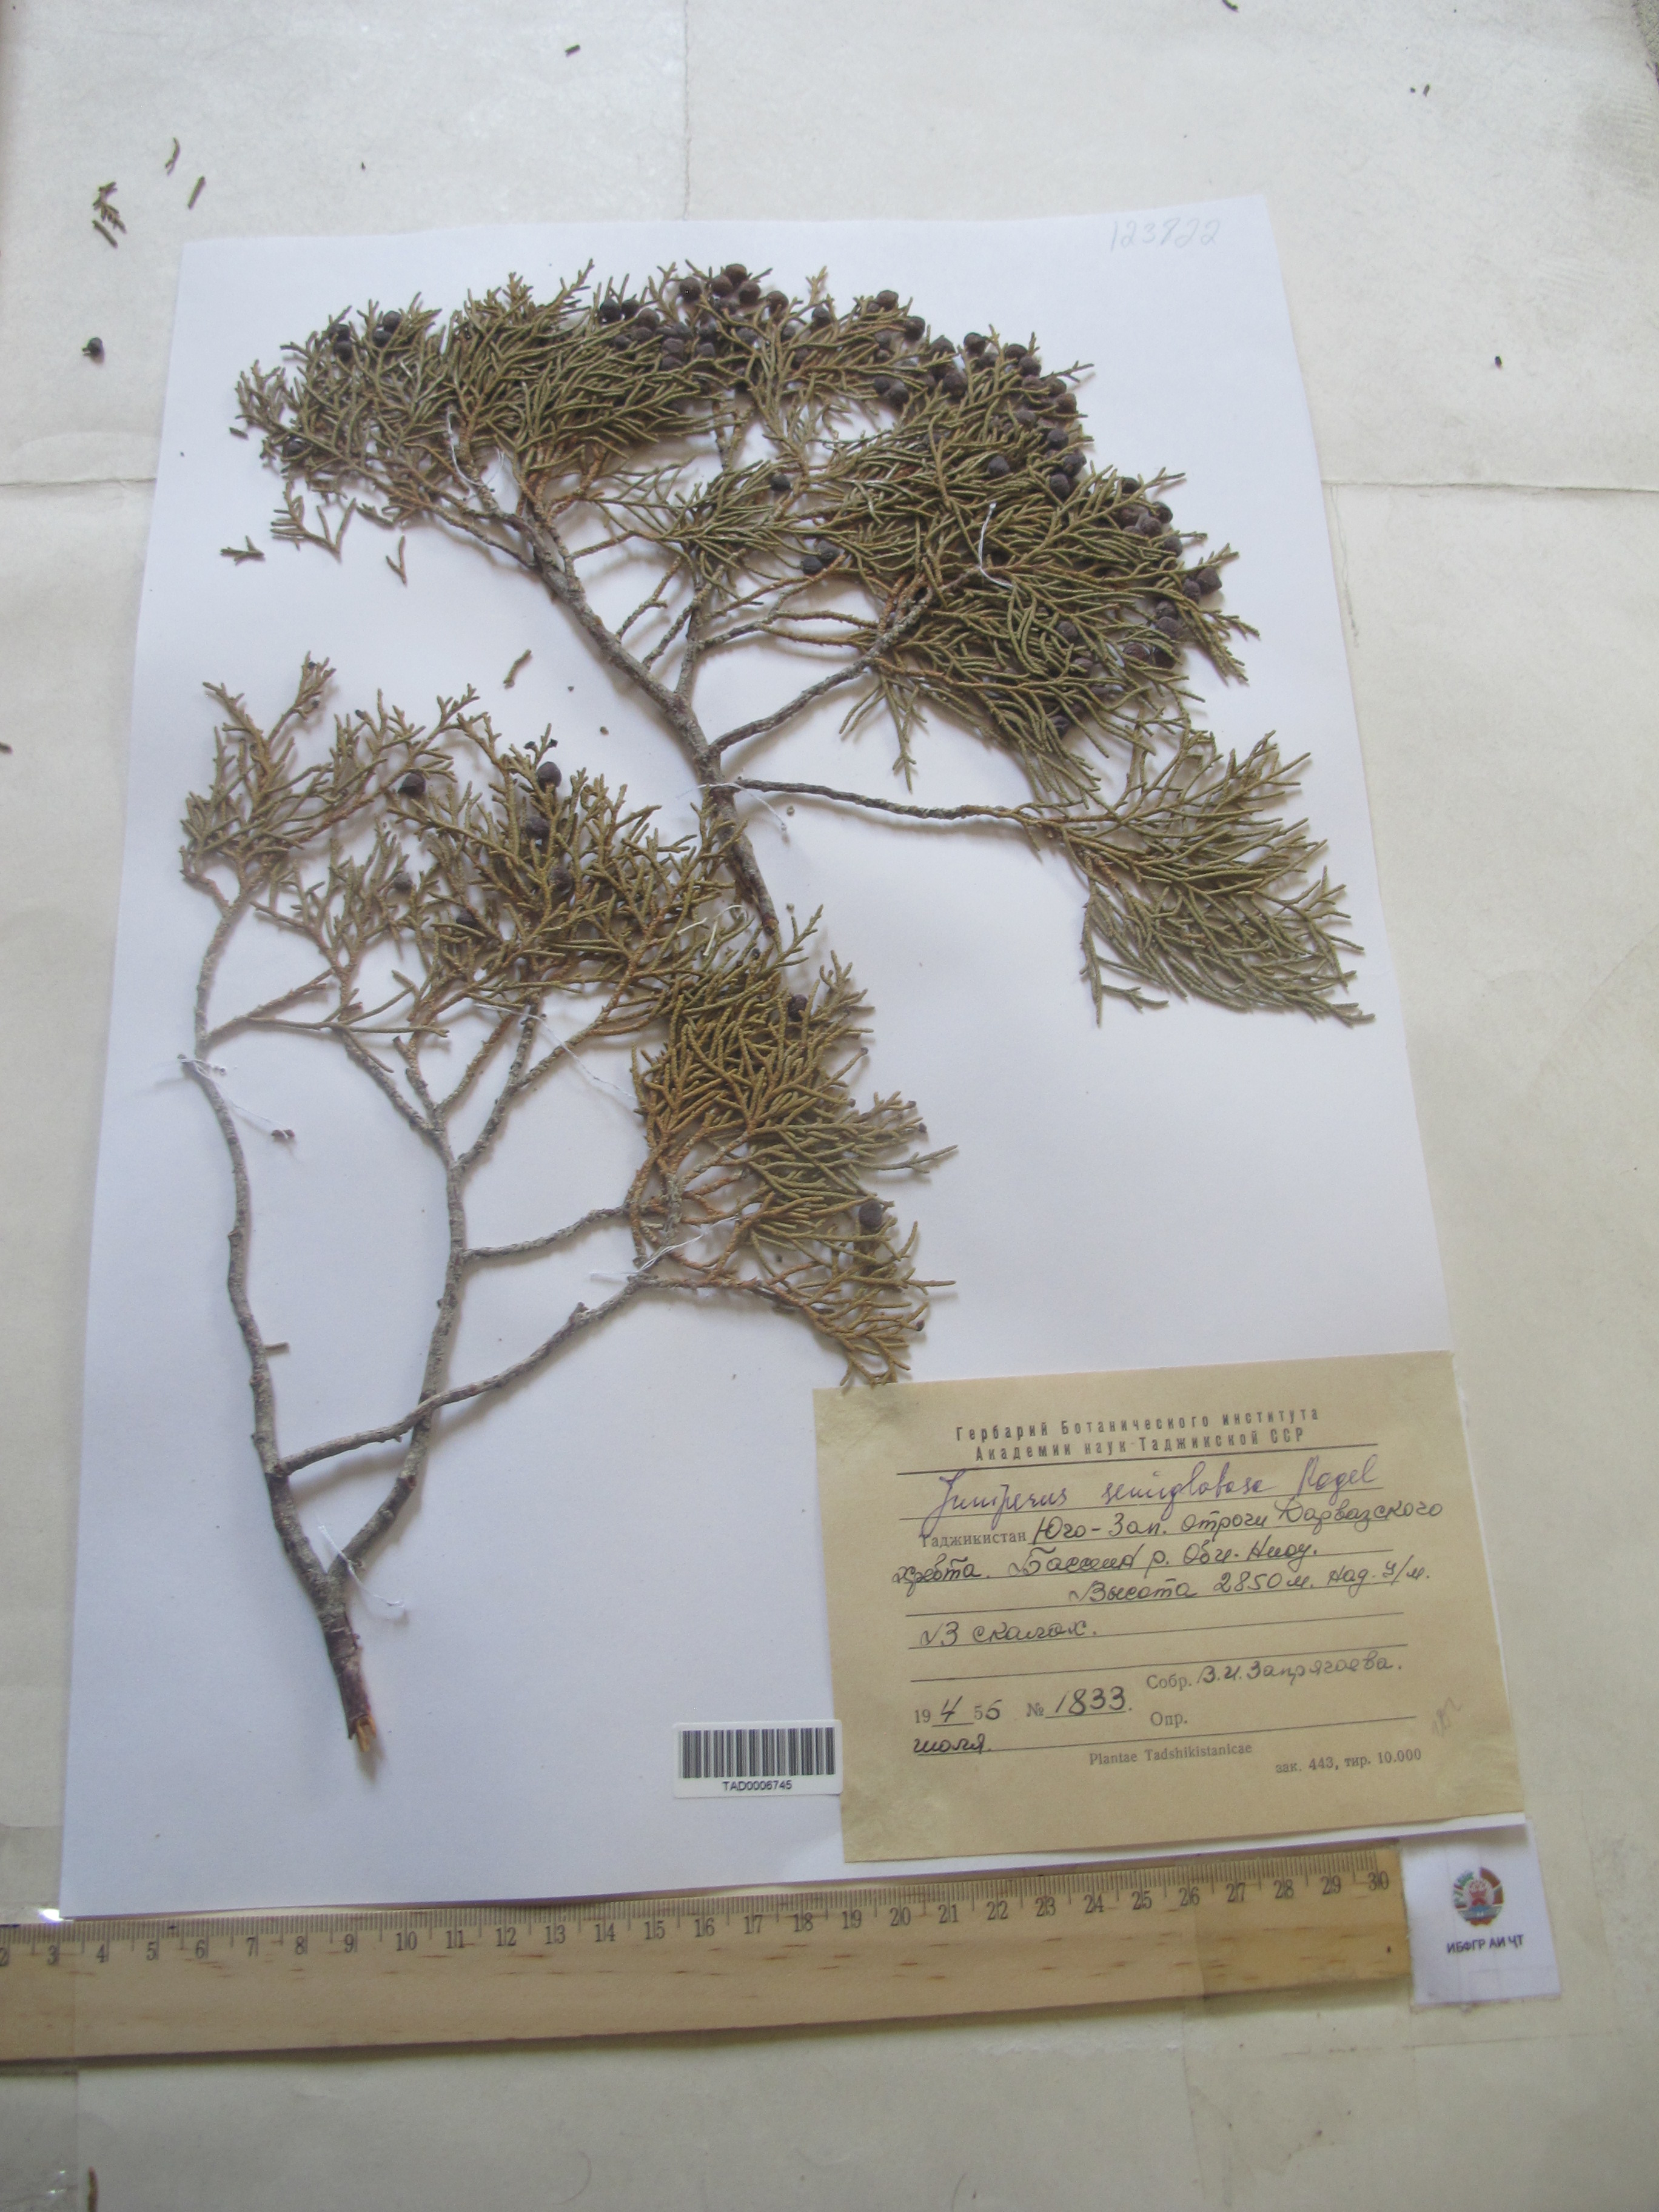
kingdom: Plantae
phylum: Tracheophyta
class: Pinopsida
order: Pinales
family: Cupressaceae
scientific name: Cupressaceae
